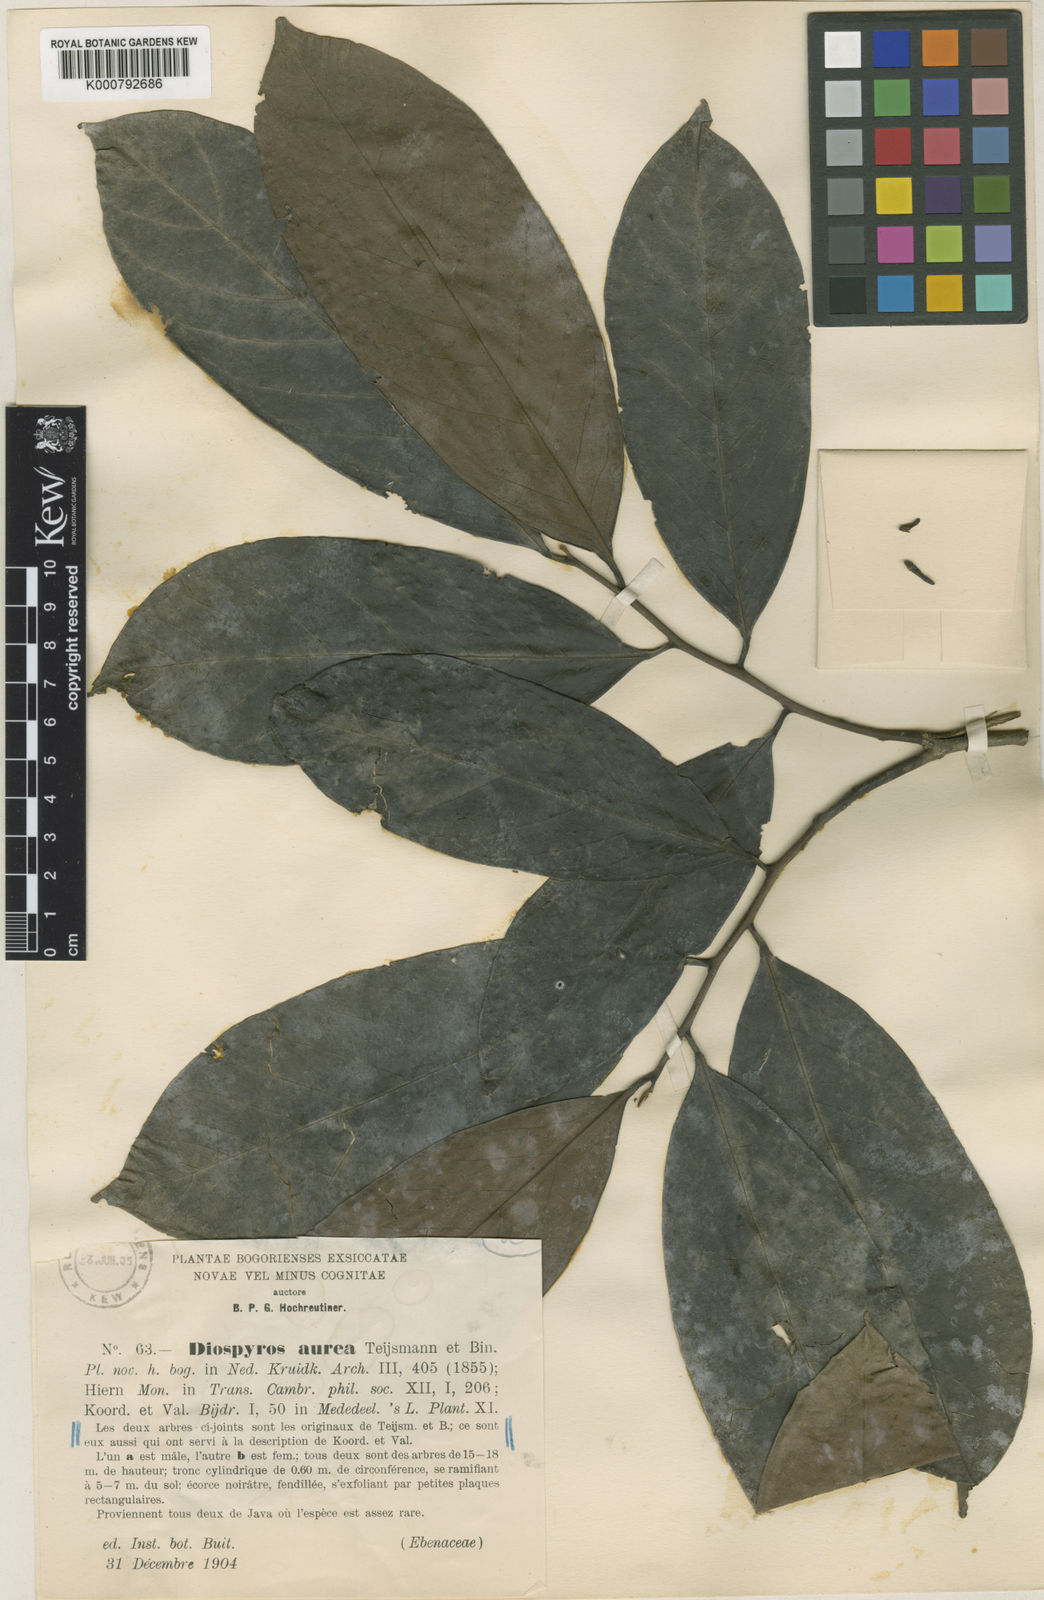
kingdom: Plantae
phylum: Tracheophyta
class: Magnoliopsida
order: Ericales
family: Ebenaceae
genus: Diospyros
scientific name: Diospyros aurea
